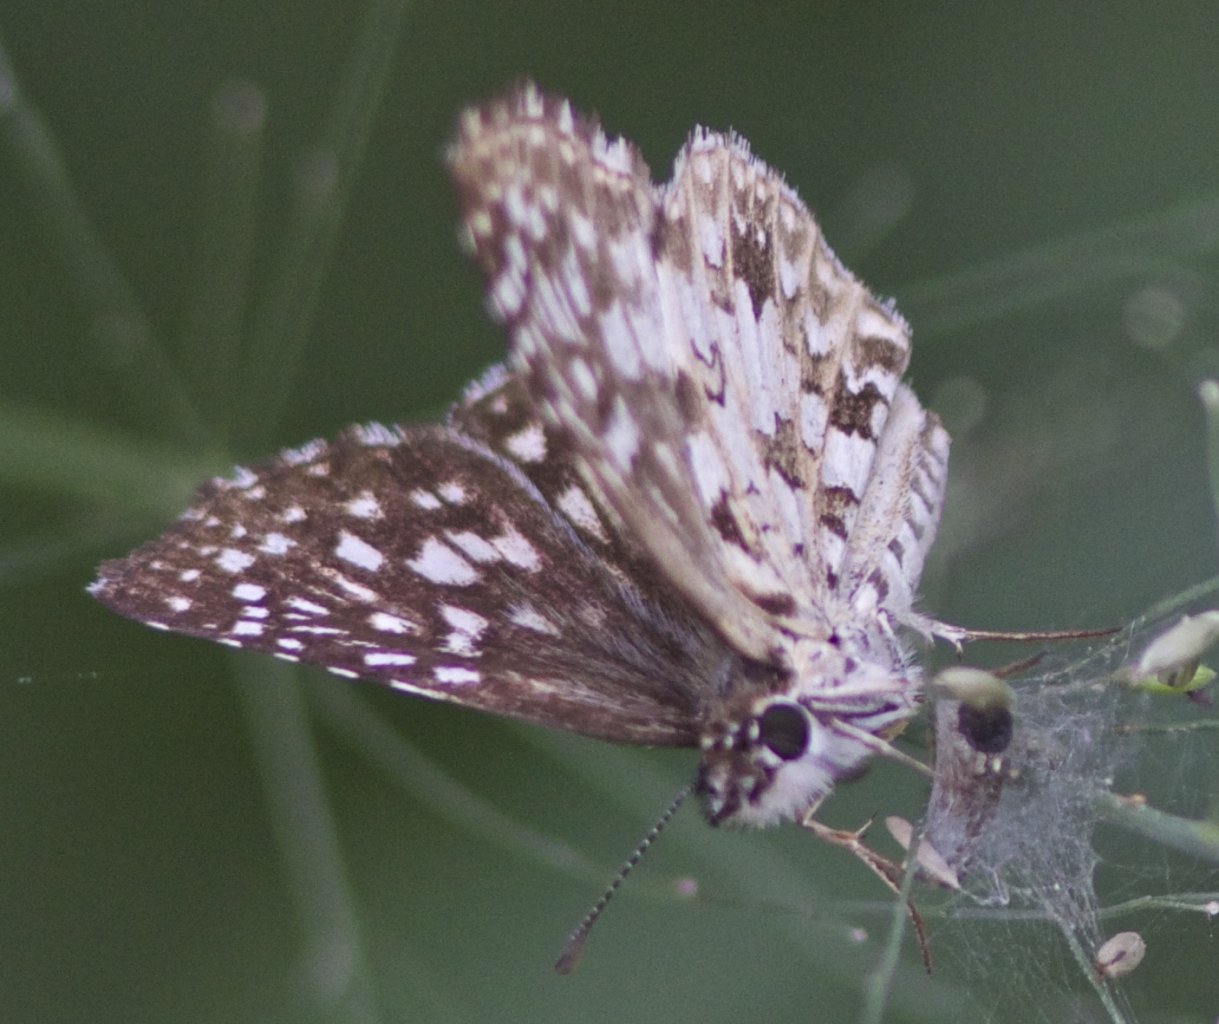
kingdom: Animalia
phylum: Arthropoda
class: Insecta
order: Lepidoptera
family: Hesperiidae
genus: Pyrgus
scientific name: Pyrgus oileus
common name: Tropical Checkered-Skipper
